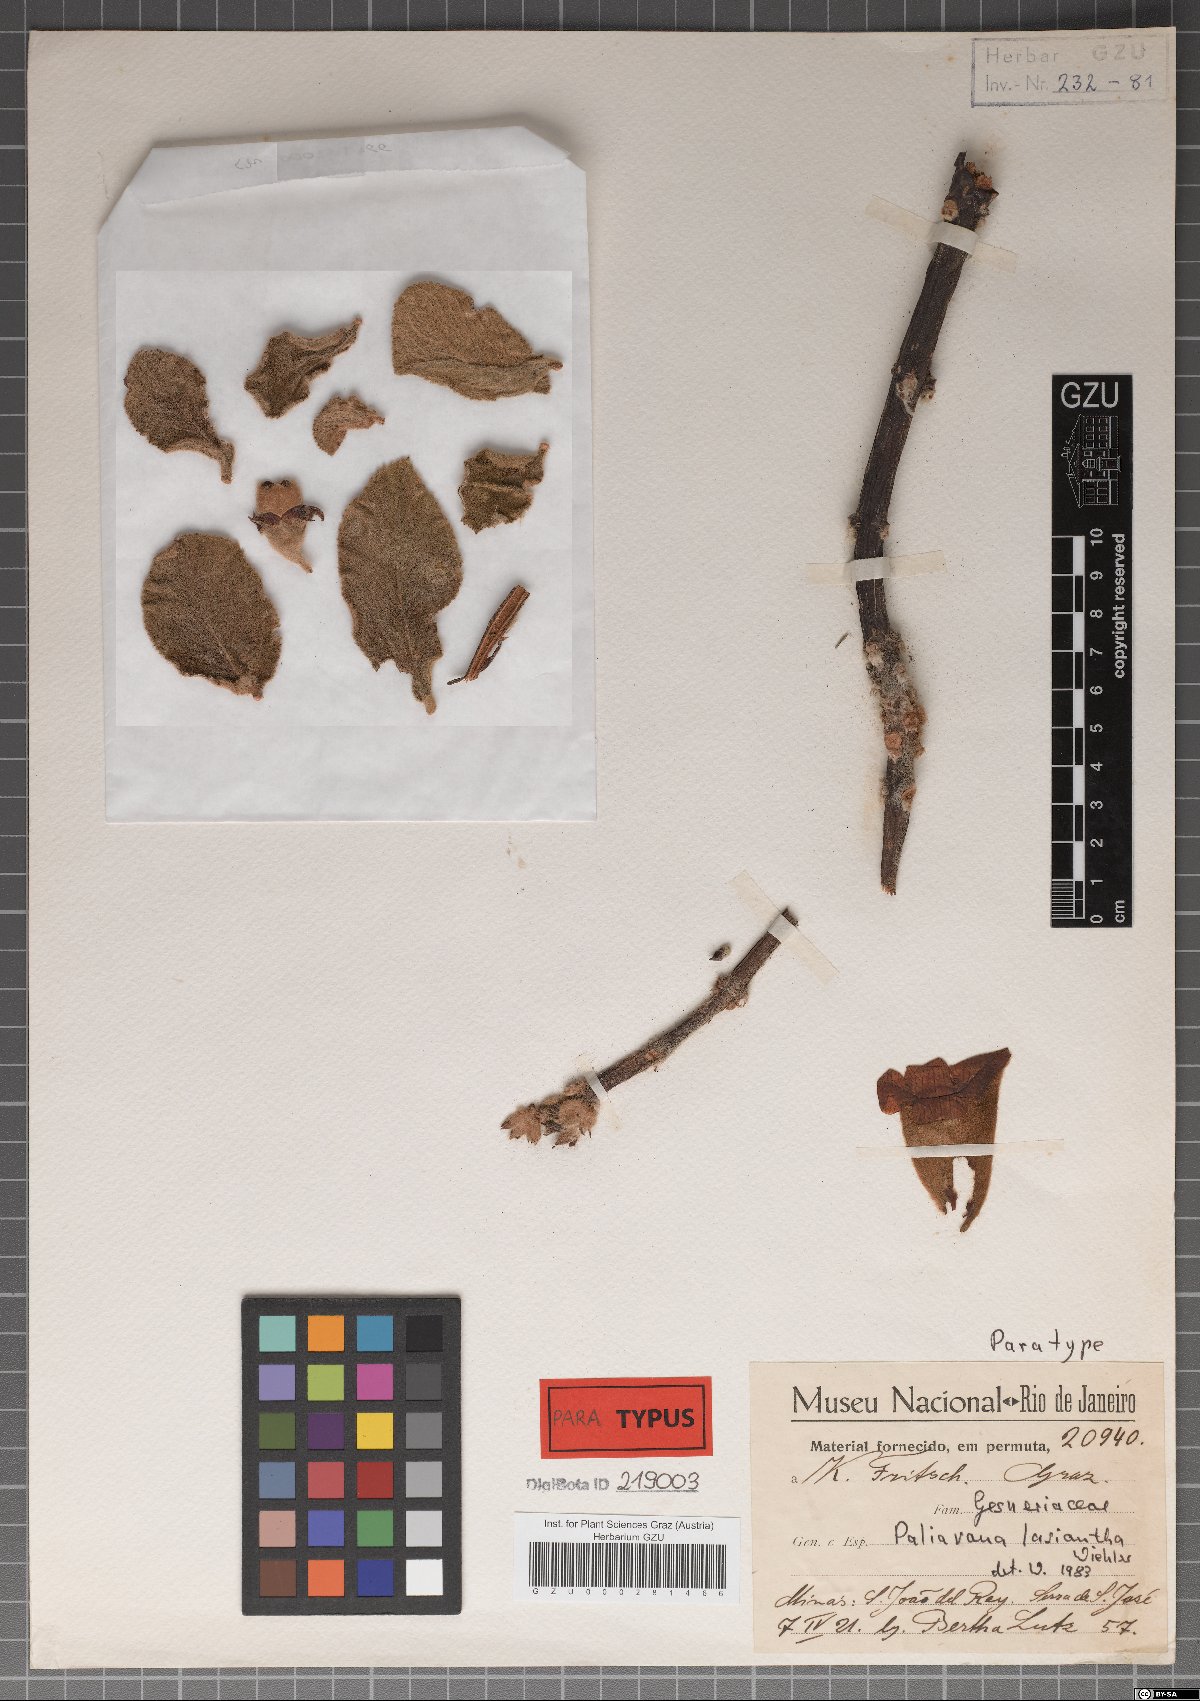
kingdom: Plantae
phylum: Tracheophyta
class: Magnoliopsida
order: Lamiales
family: Gesneriaceae
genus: Paliavana
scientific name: Paliavana sericiflora
